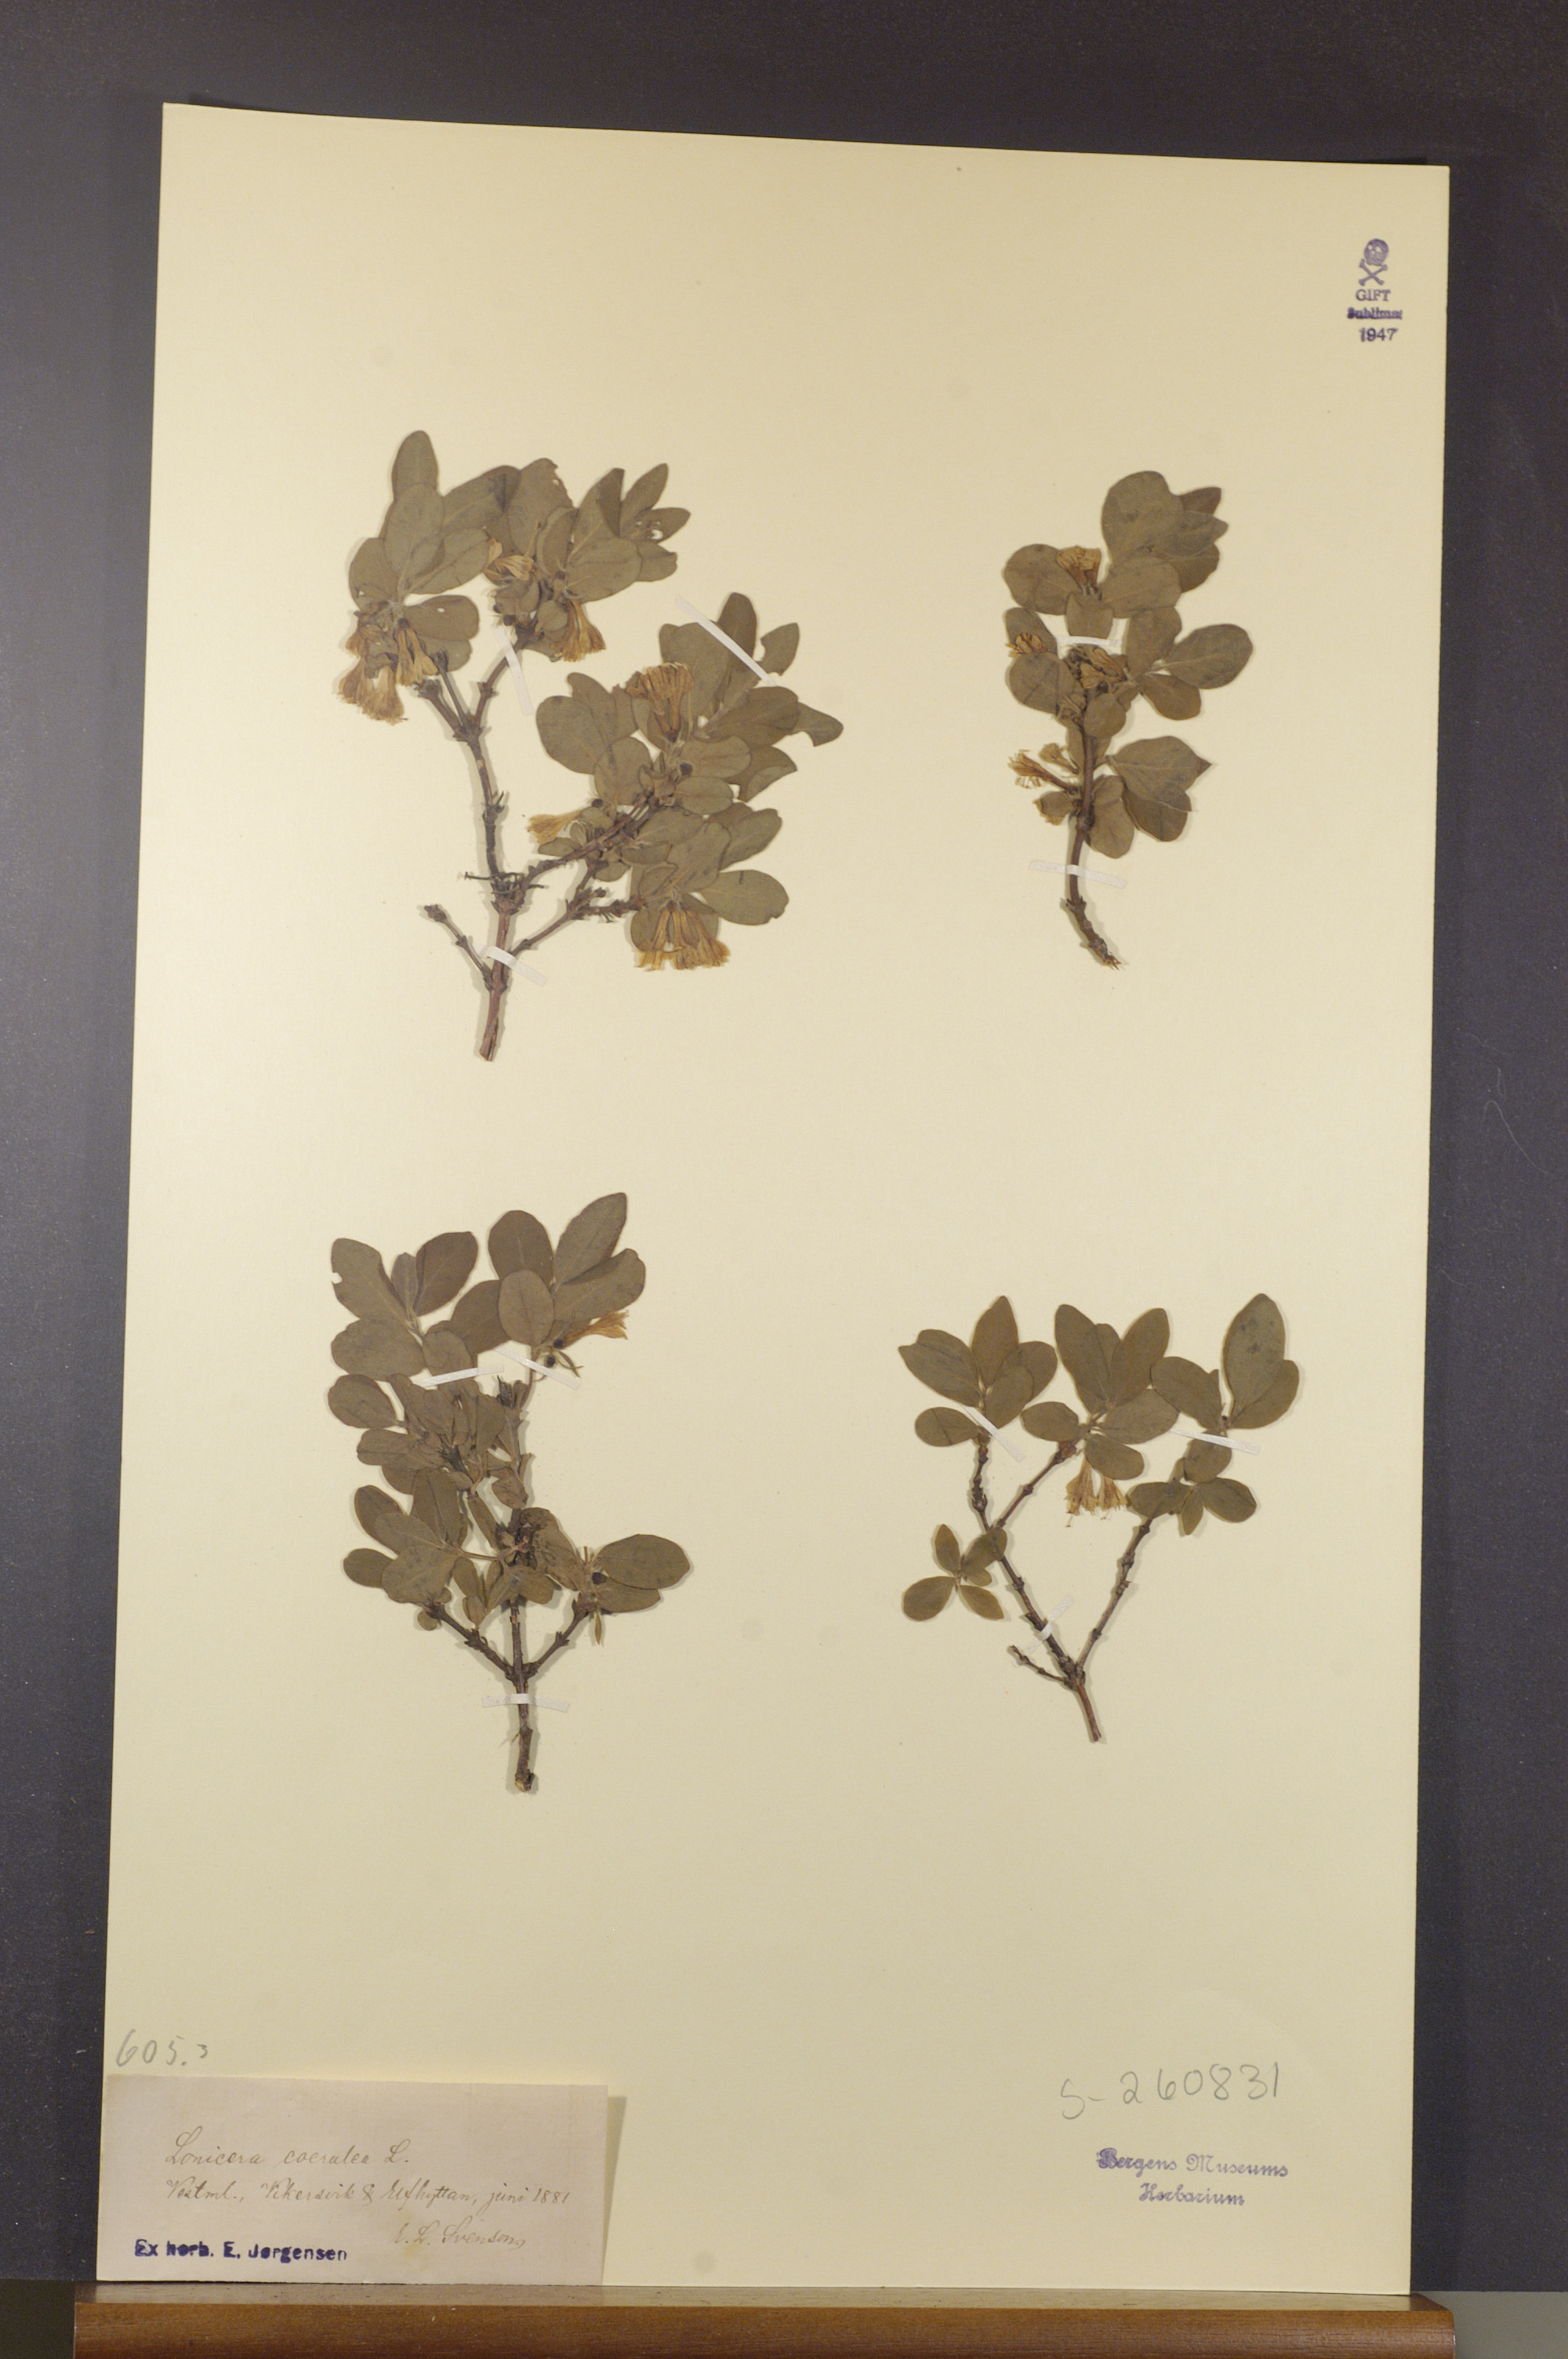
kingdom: Plantae
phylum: Tracheophyta
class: Magnoliopsida
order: Dipsacales
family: Caprifoliaceae
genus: Lonicera
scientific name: Lonicera caerulea
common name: Blue honeysuckle
